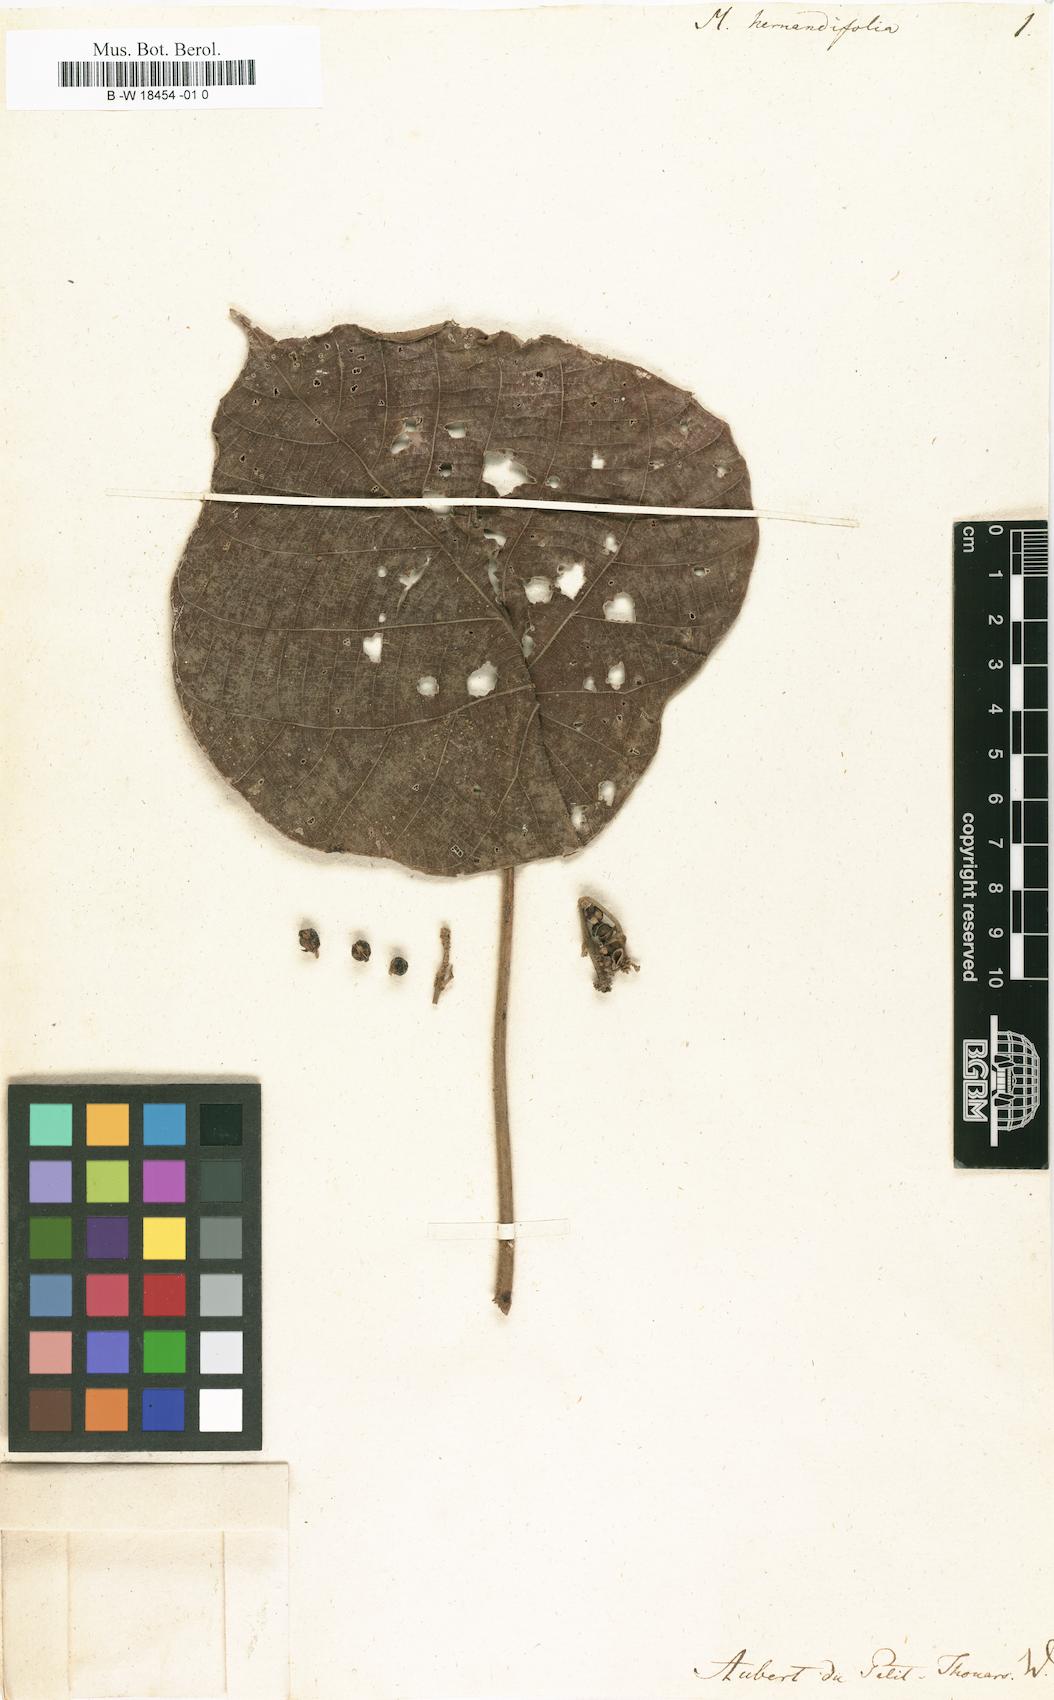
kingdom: Plantae
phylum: Tracheophyta
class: Magnoliopsida
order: Malpighiales
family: Euphorbiaceae
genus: Macaranga
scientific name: Macaranga
